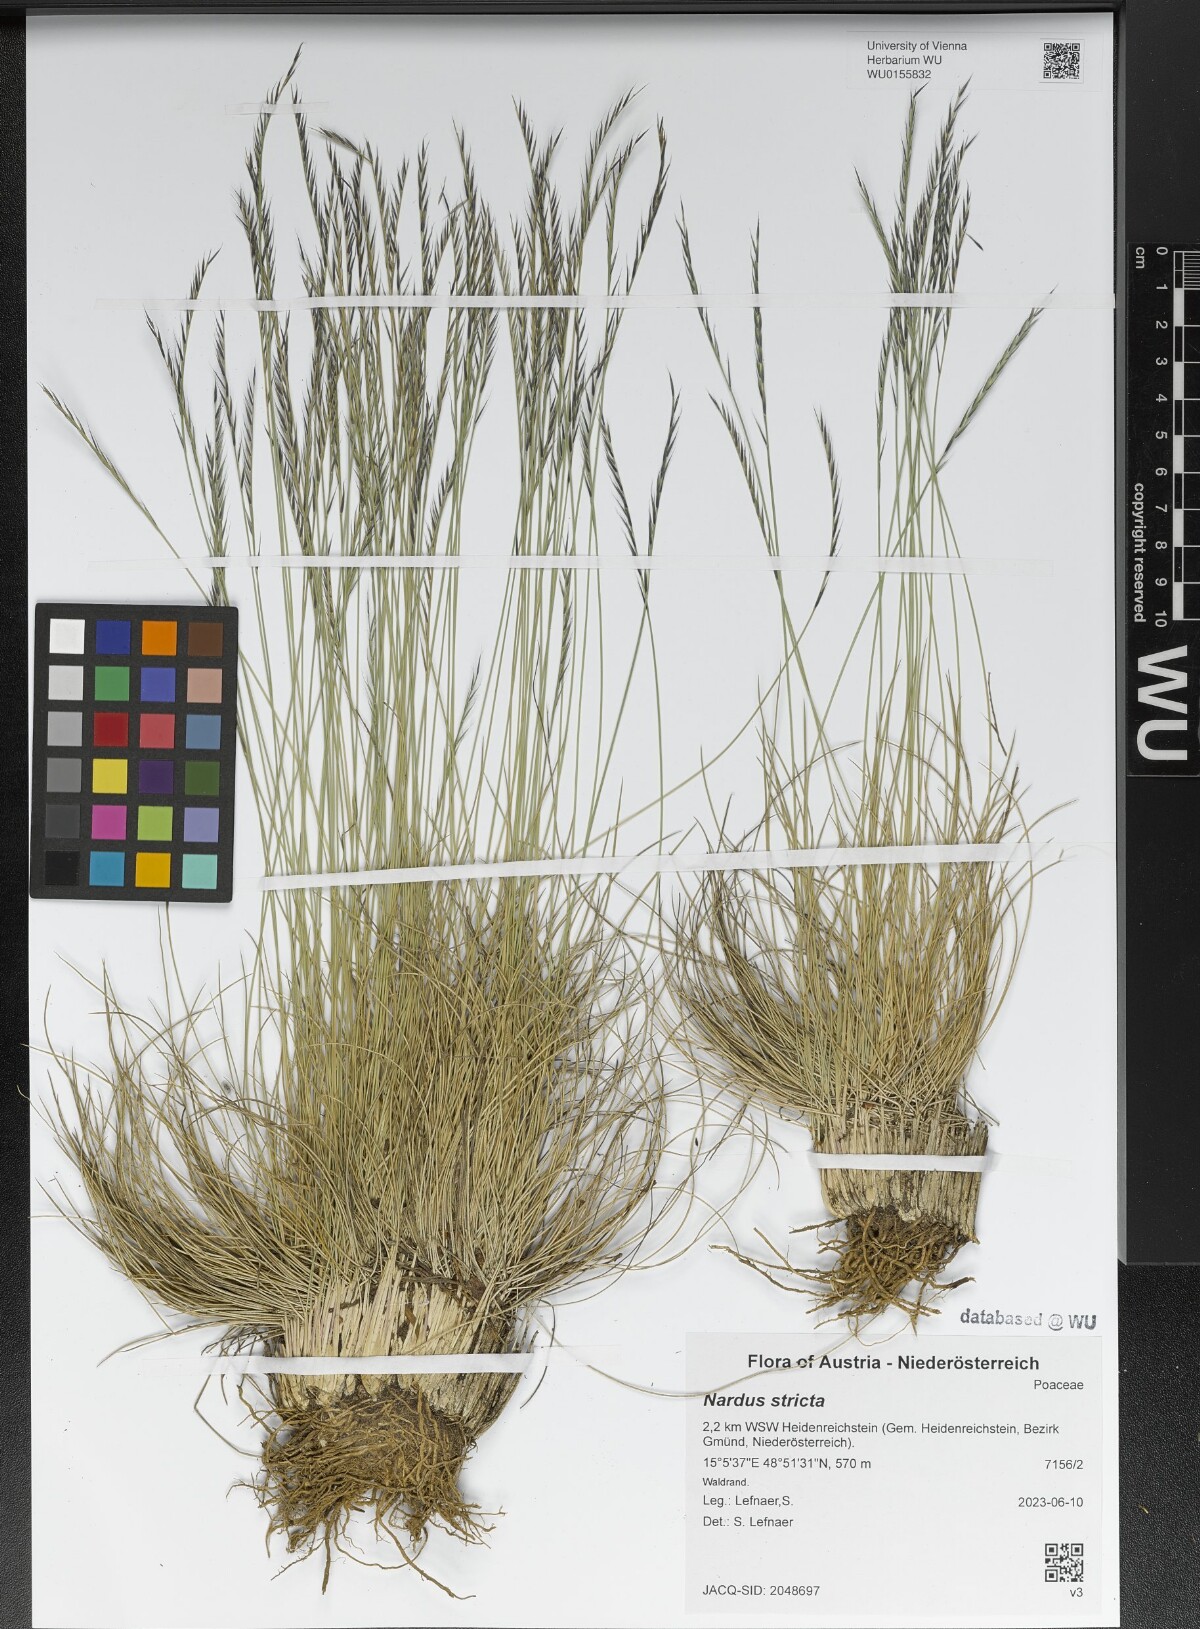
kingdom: Plantae
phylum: Tracheophyta
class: Liliopsida
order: Poales
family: Poaceae
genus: Nardus
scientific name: Nardus stricta
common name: Mat-grass
